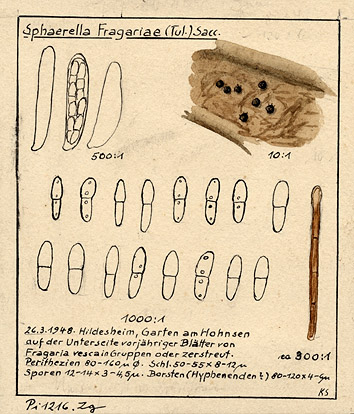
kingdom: Fungi
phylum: Ascomycota
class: Dothideomycetes
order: Mycosphaerellales
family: Mycosphaerellaceae
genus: Ramularia
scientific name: Ramularia grevilleana
